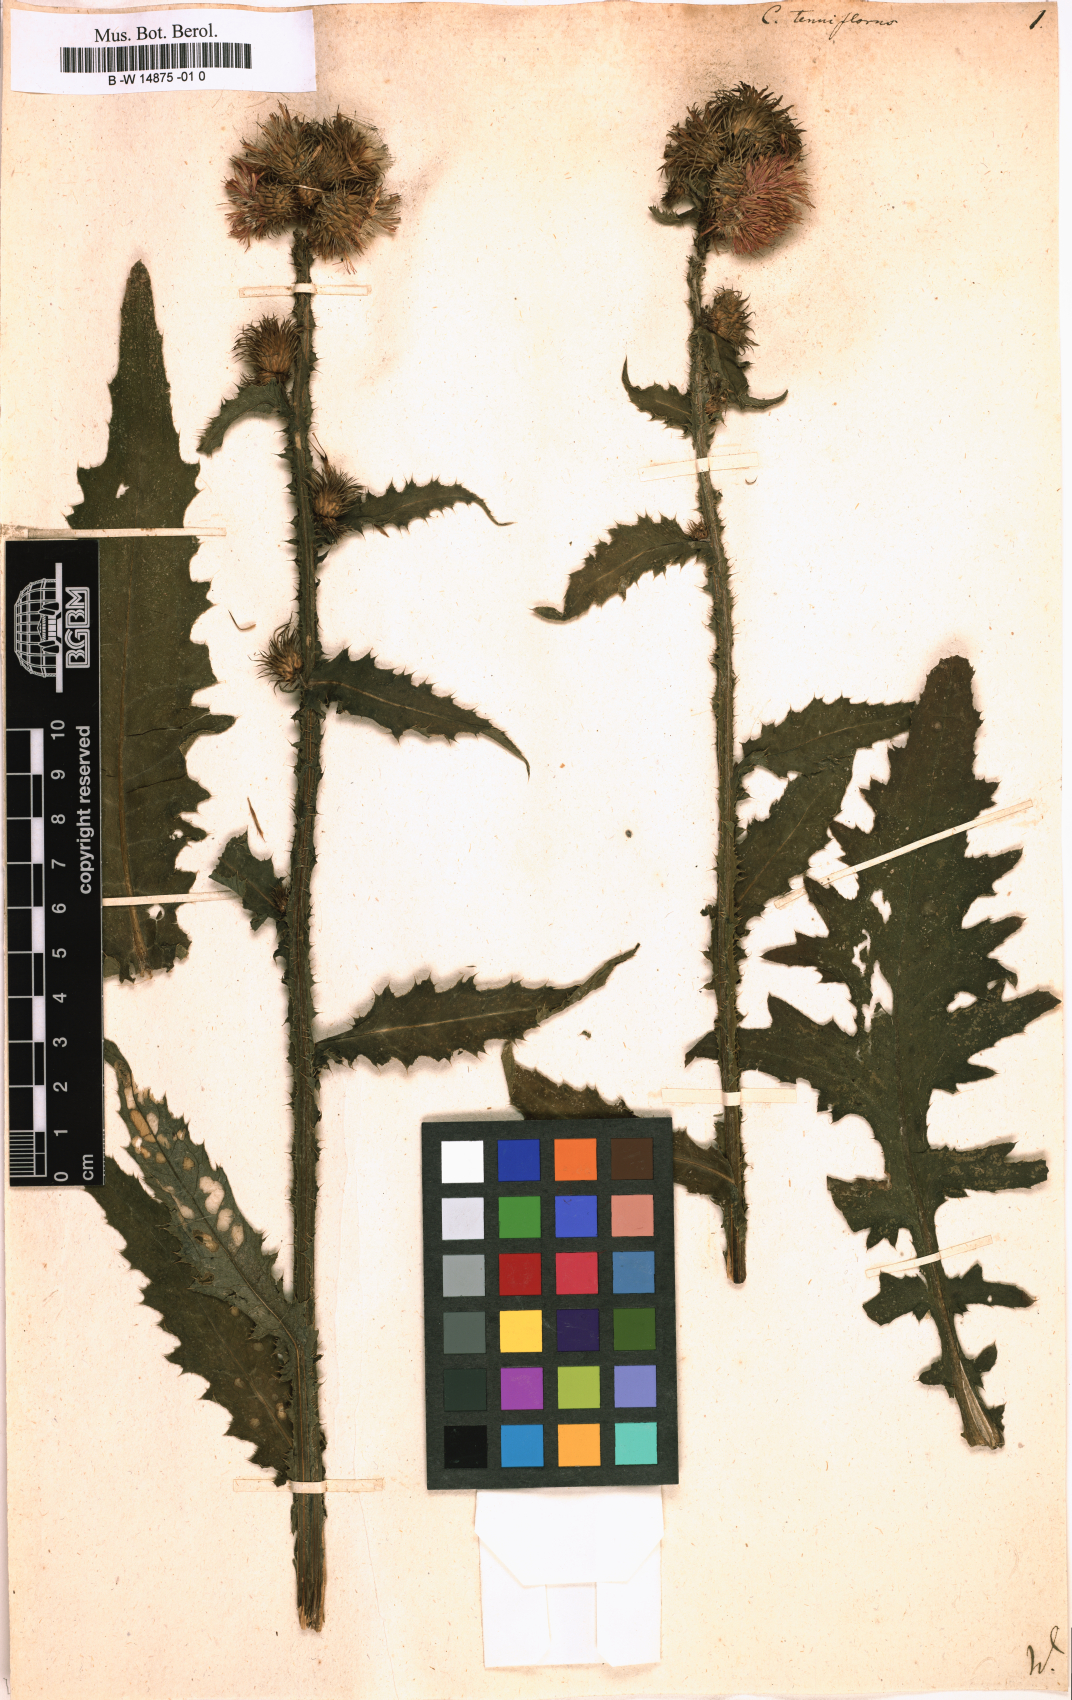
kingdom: Plantae
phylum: Tracheophyta
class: Magnoliopsida
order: Asterales
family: Asteraceae
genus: Carduus
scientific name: Carduus tenuiflorus
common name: Slender thistle
